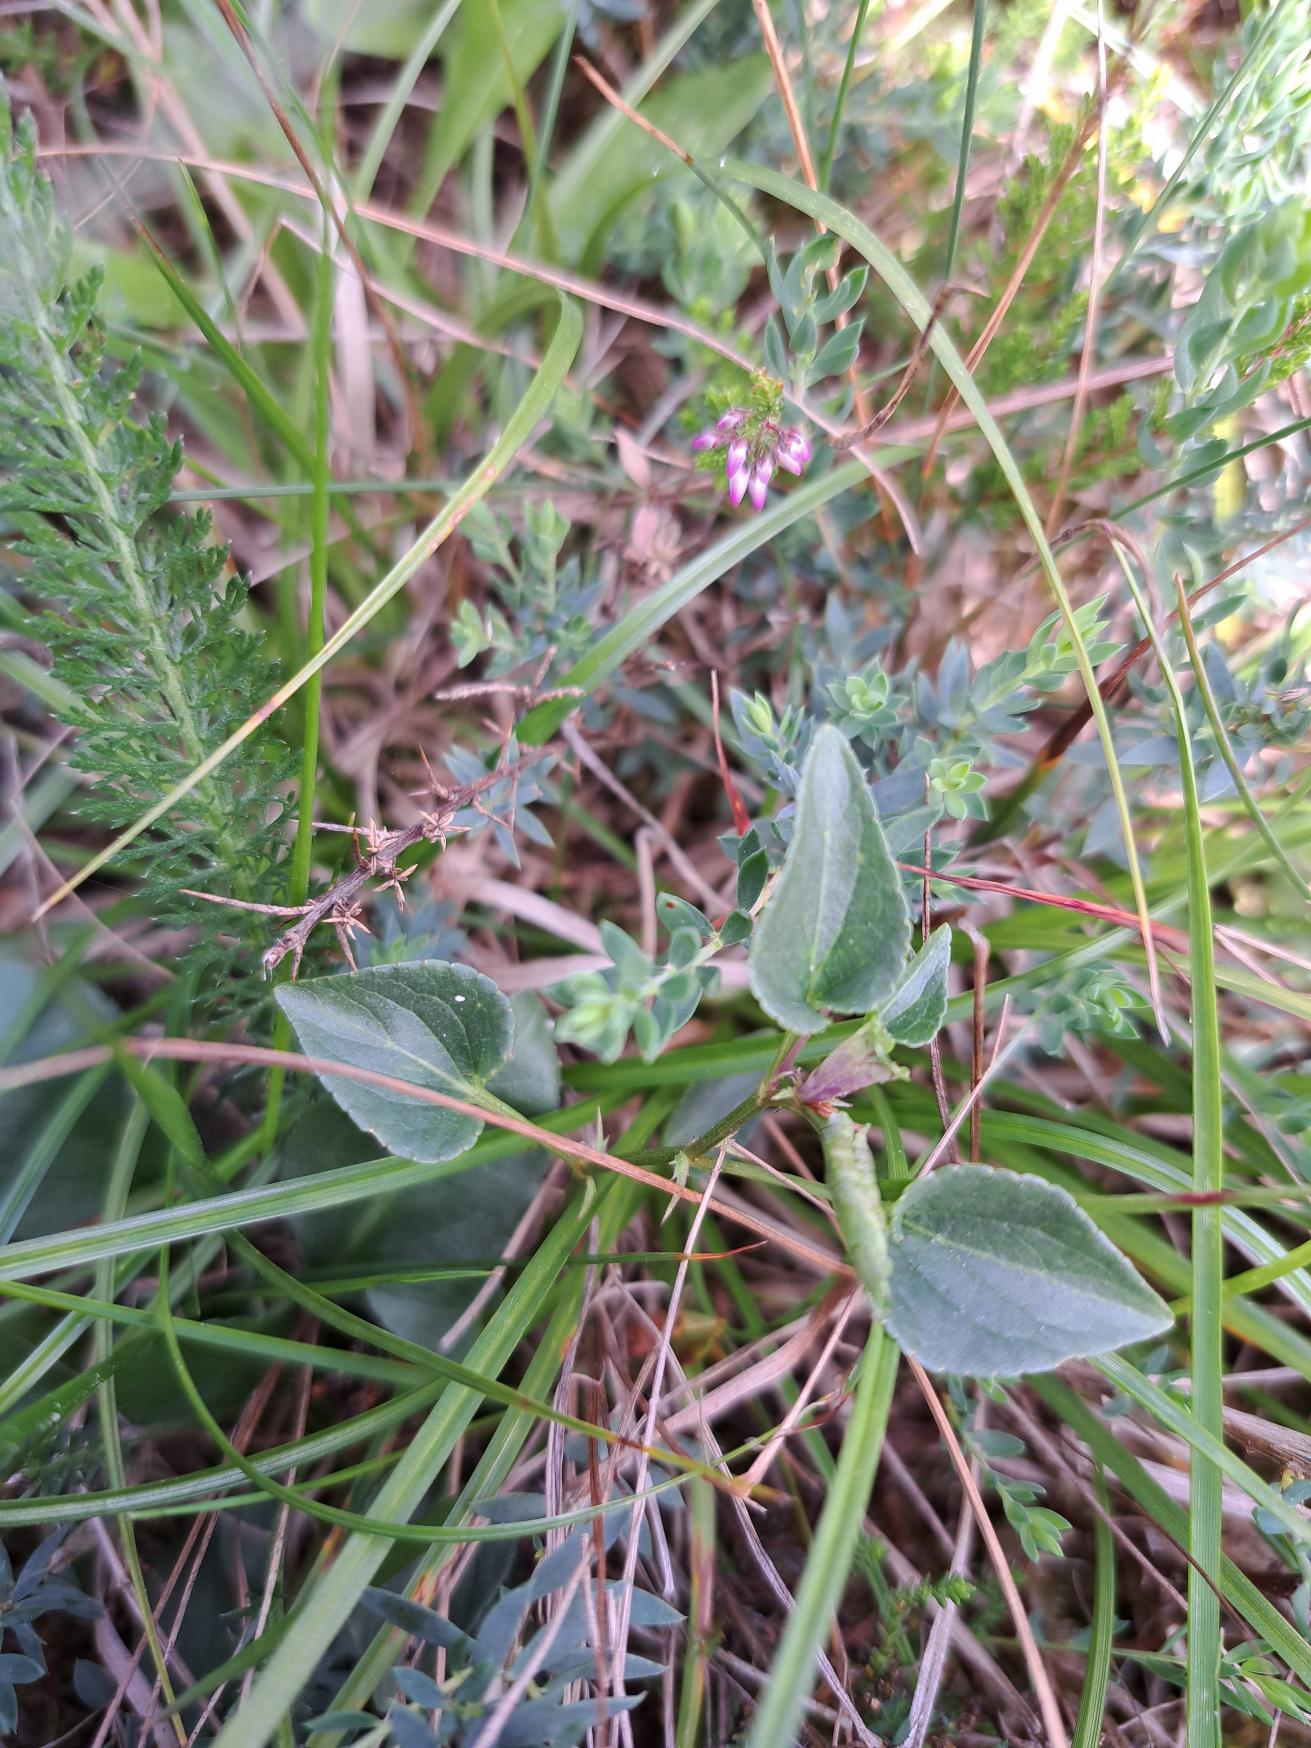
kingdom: Plantae
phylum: Tracheophyta
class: Magnoliopsida
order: Malpighiales
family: Violaceae
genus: Viola
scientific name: Viola canina
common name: Hunde-viol
